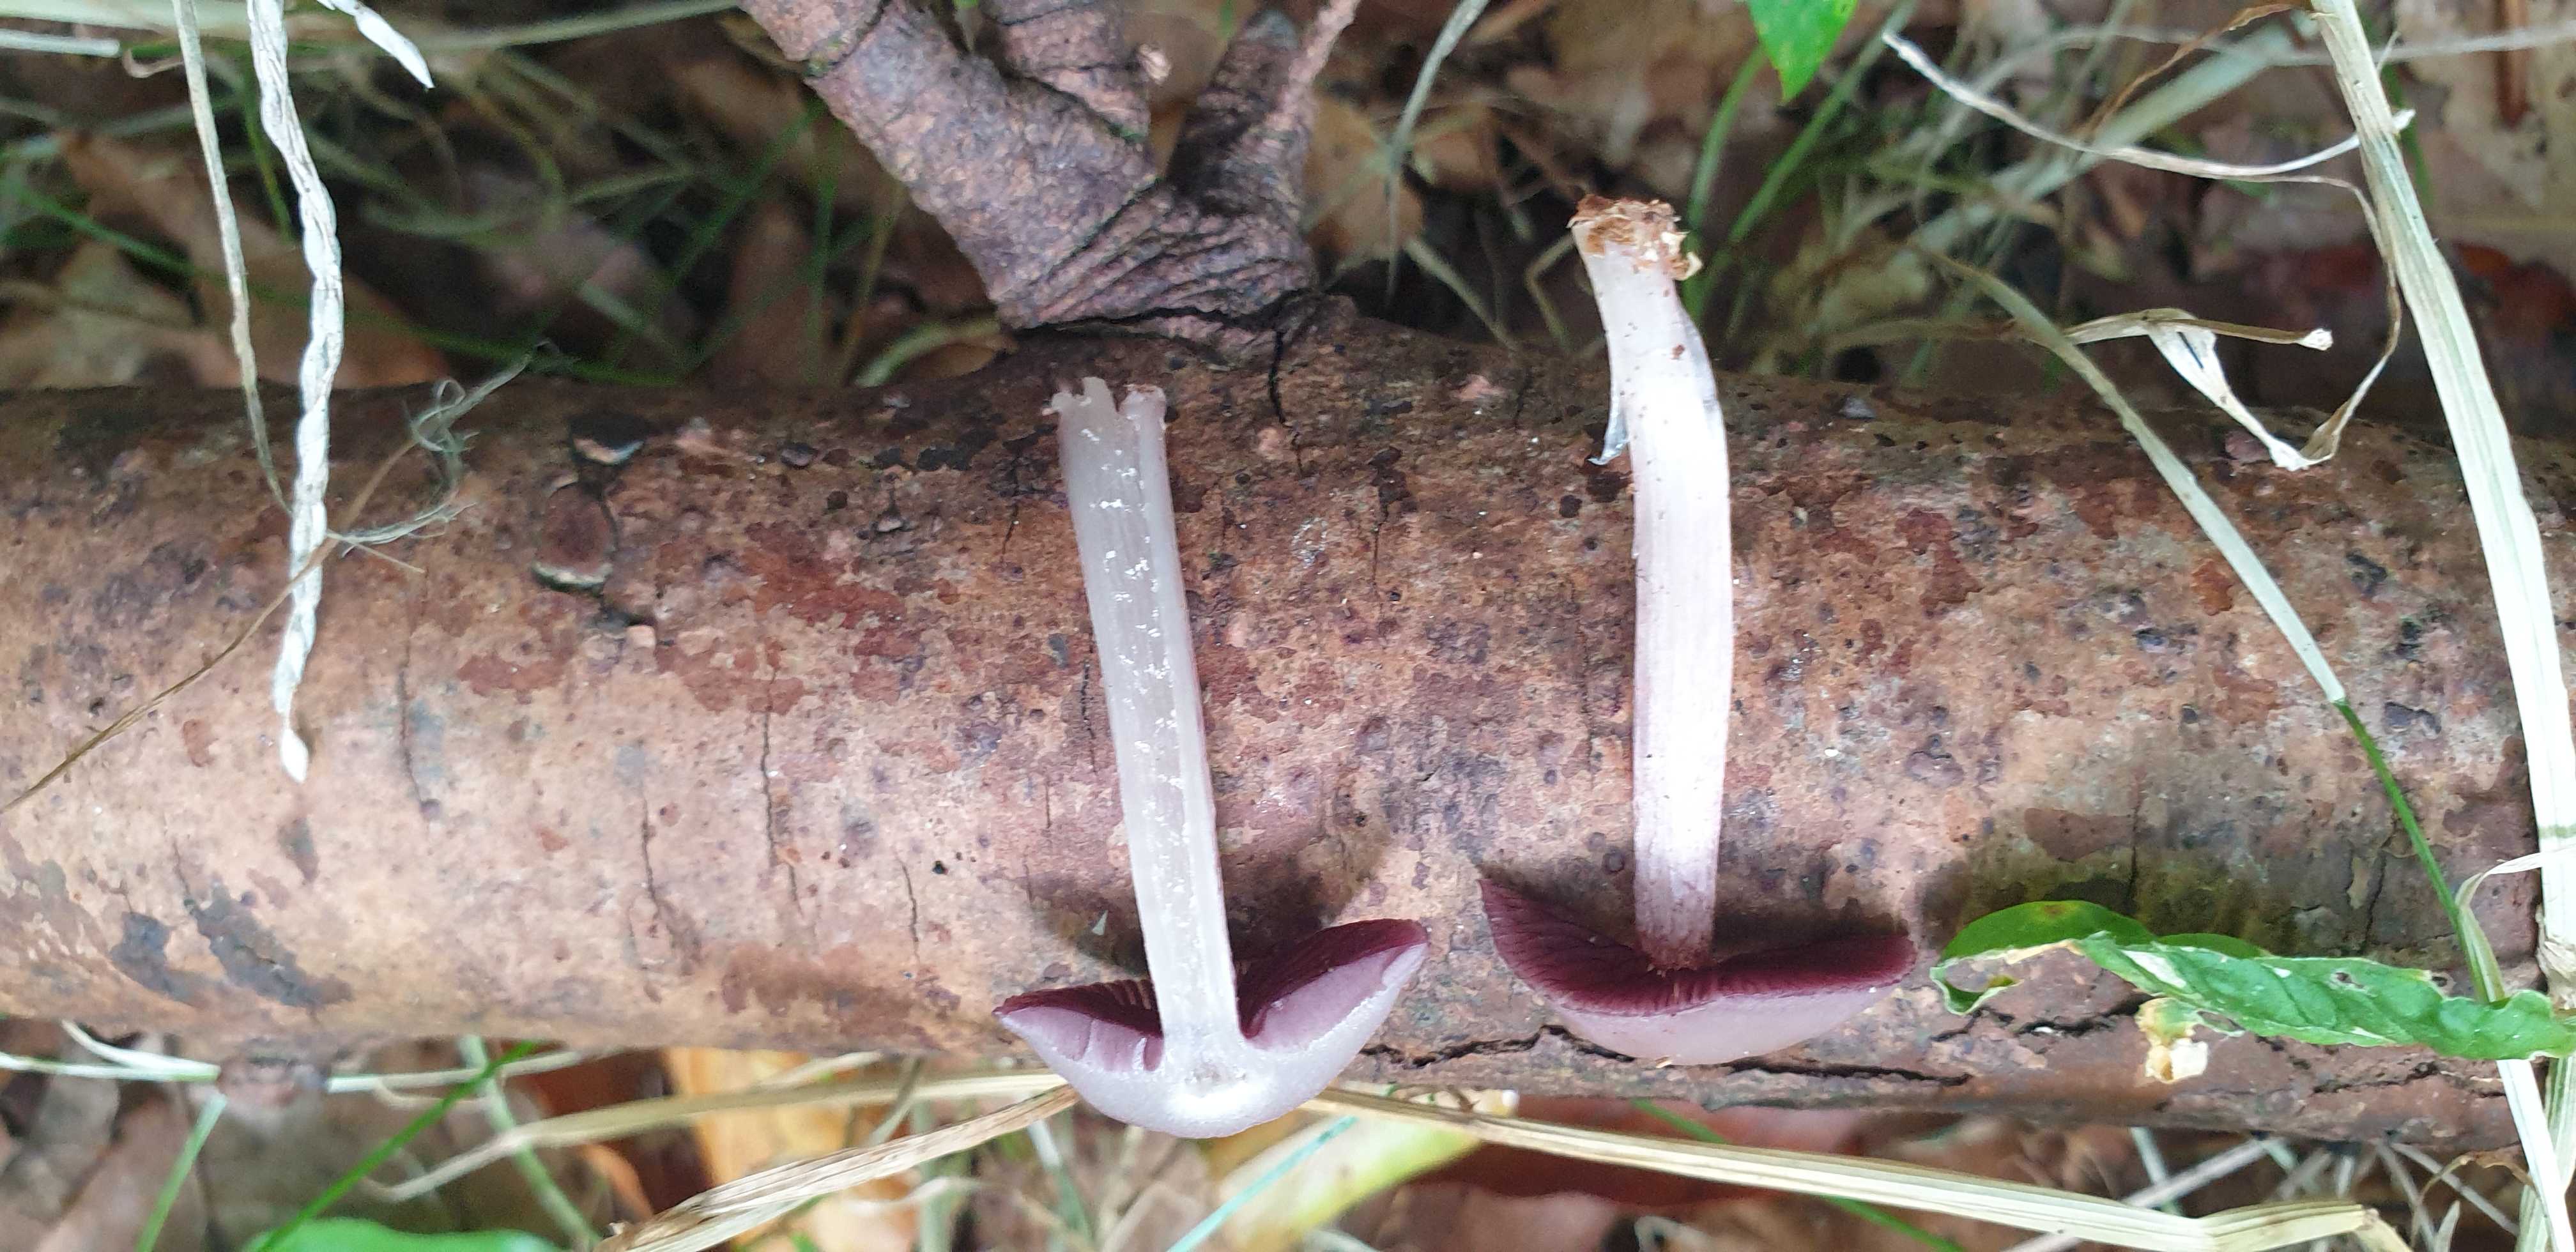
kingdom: Fungi
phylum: Basidiomycota
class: Agaricomycetes
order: Agaricales
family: Mycenaceae
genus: Mycena
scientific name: Mycena pelianthina
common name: mørkbladet huesvamp
